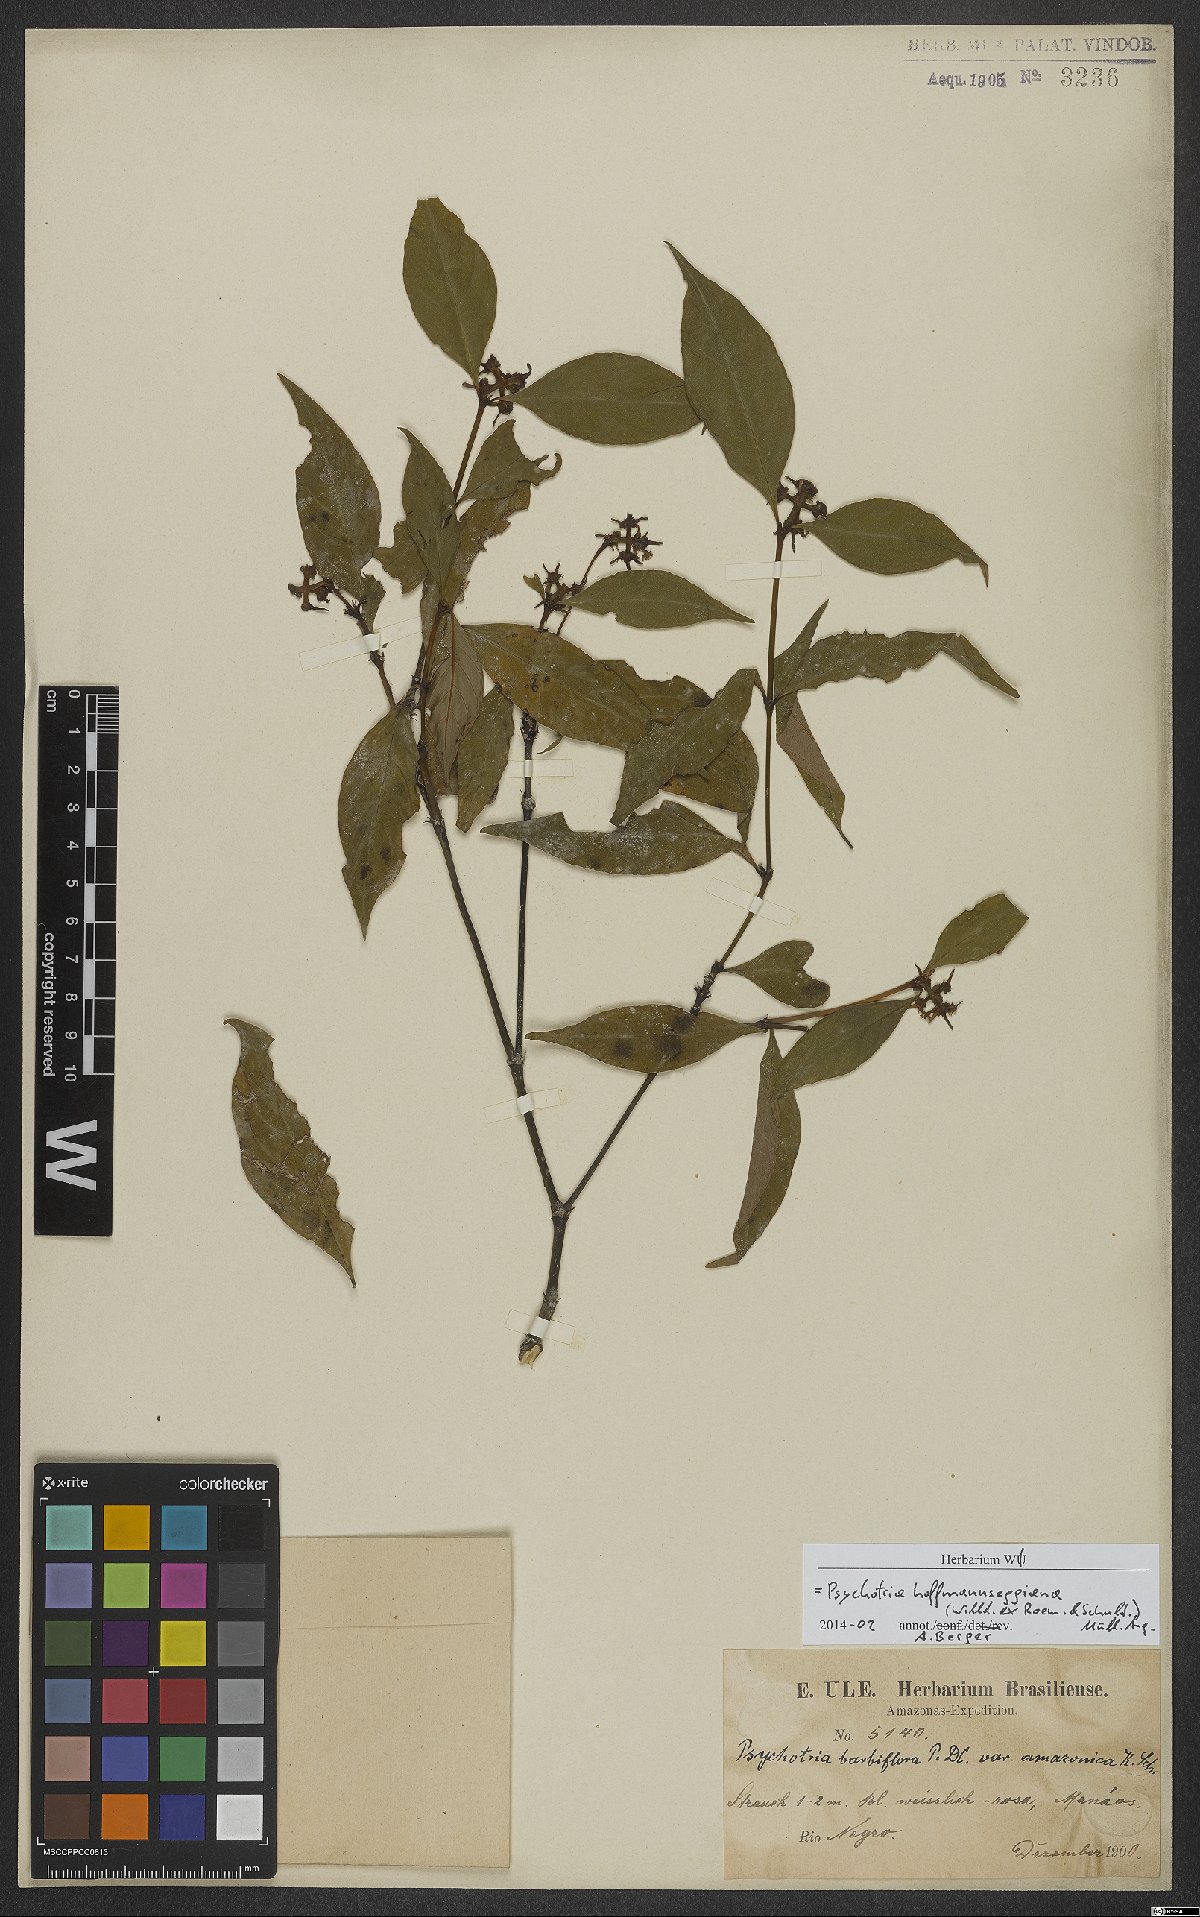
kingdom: Plantae
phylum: Tracheophyta
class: Magnoliopsida
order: Gentianales
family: Rubiaceae
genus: Palicourea
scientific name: Palicourea hoffmannseggiana
